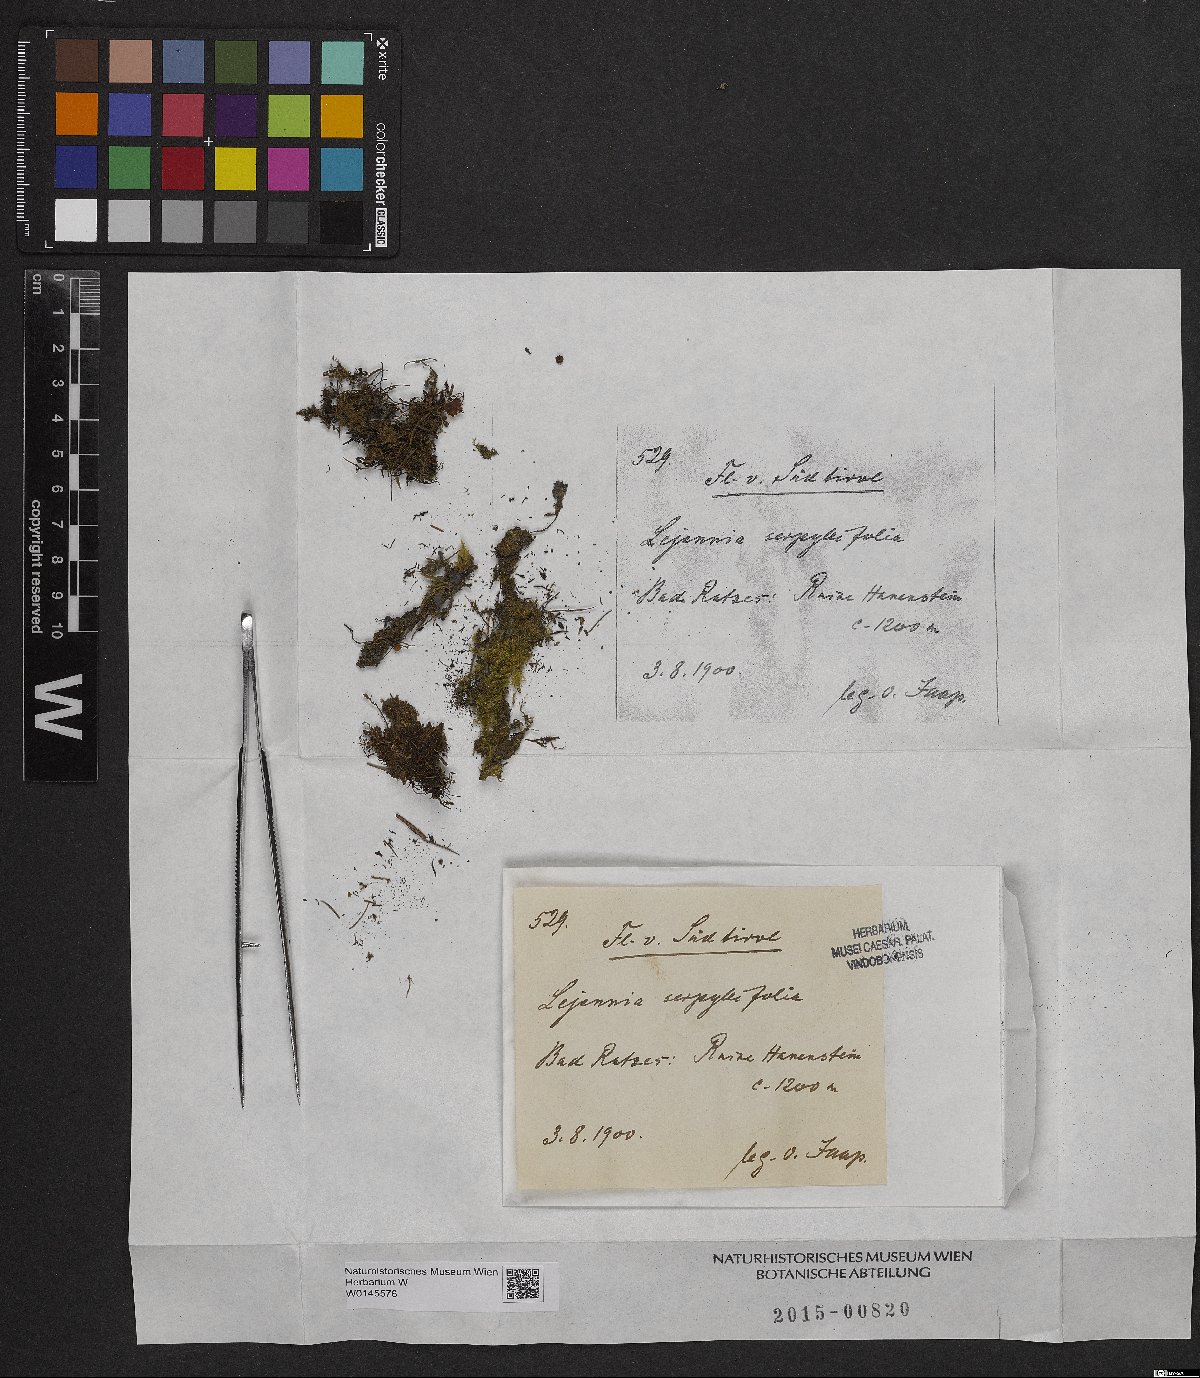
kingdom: Plantae
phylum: Marchantiophyta
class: Jungermanniopsida
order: Porellales
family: Lejeuneaceae
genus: Lejeunea
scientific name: Lejeunea patens
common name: Pearl pouncewort
